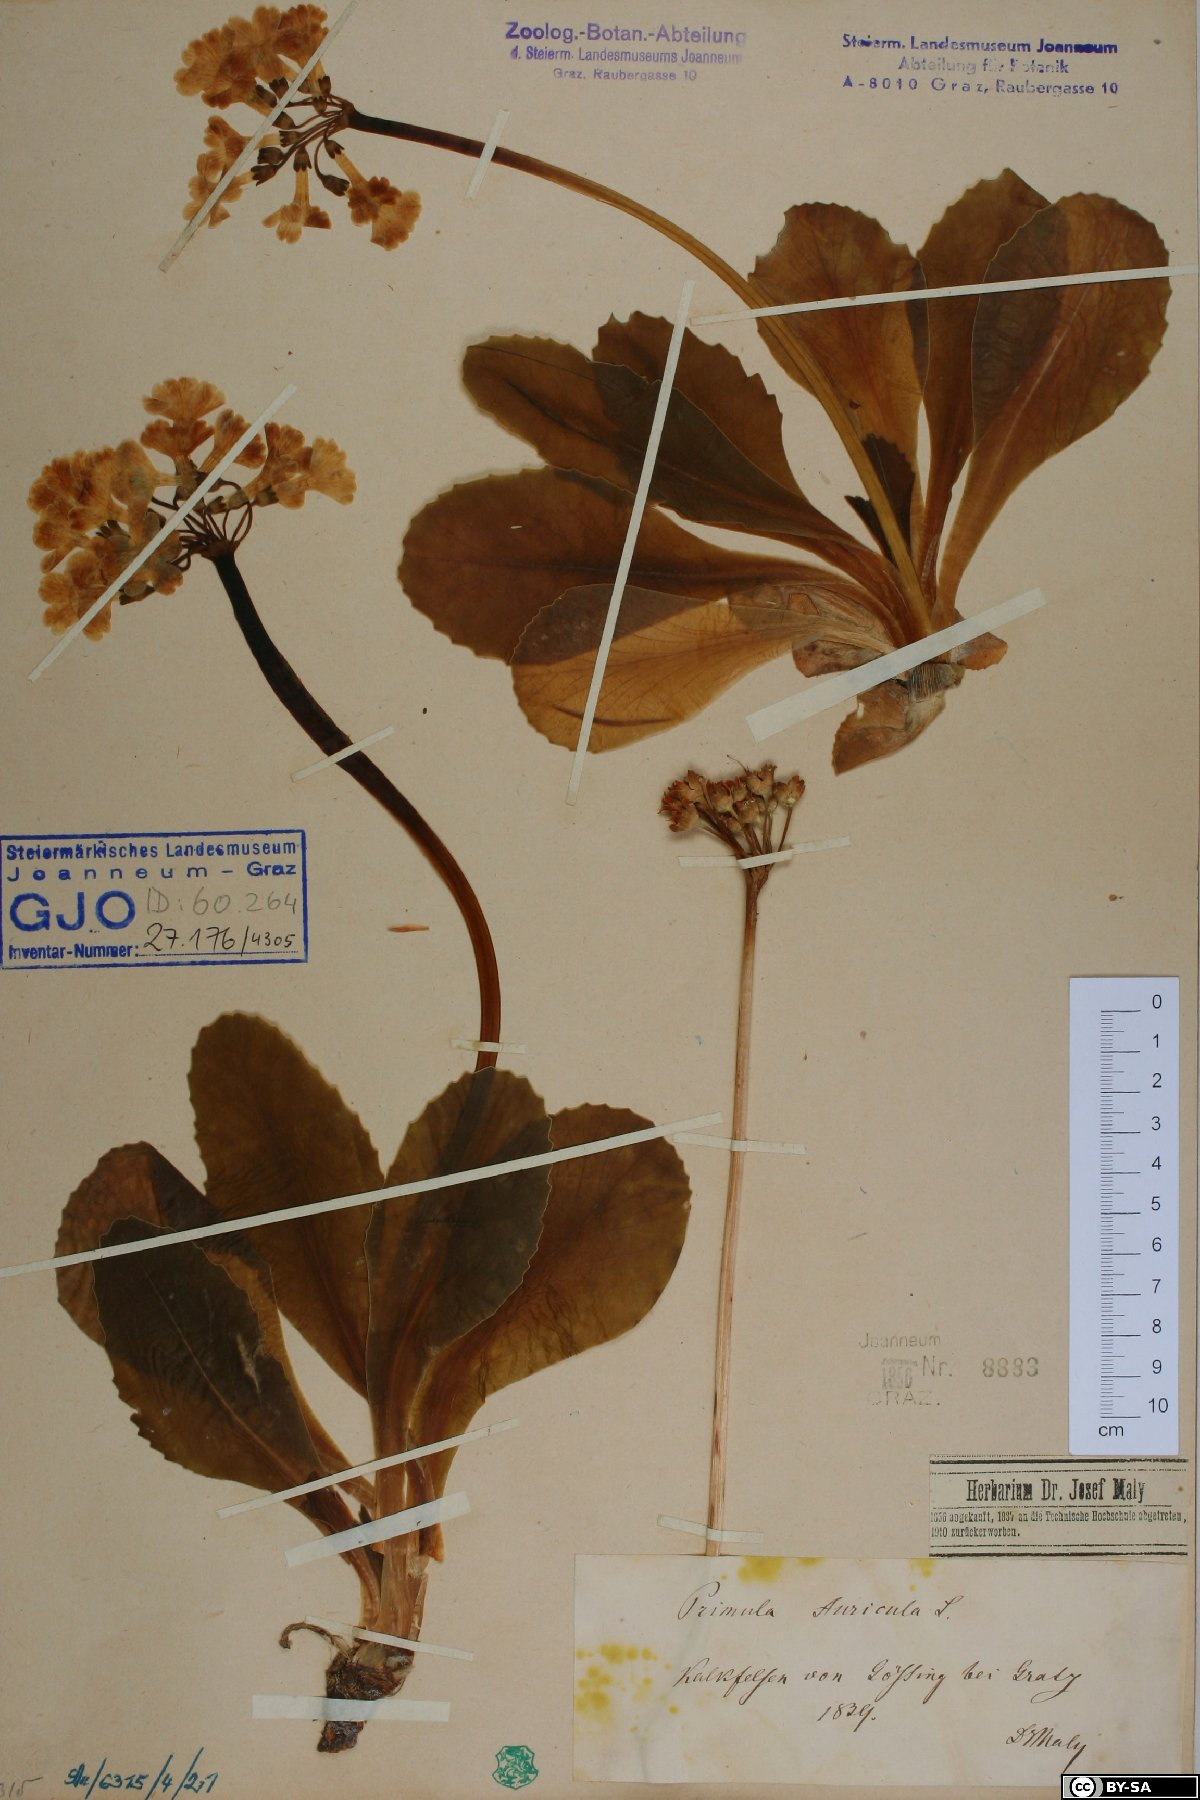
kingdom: Plantae
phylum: Tracheophyta
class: Magnoliopsida
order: Ericales
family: Primulaceae
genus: Primula
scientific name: Primula auricula
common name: Auricula
